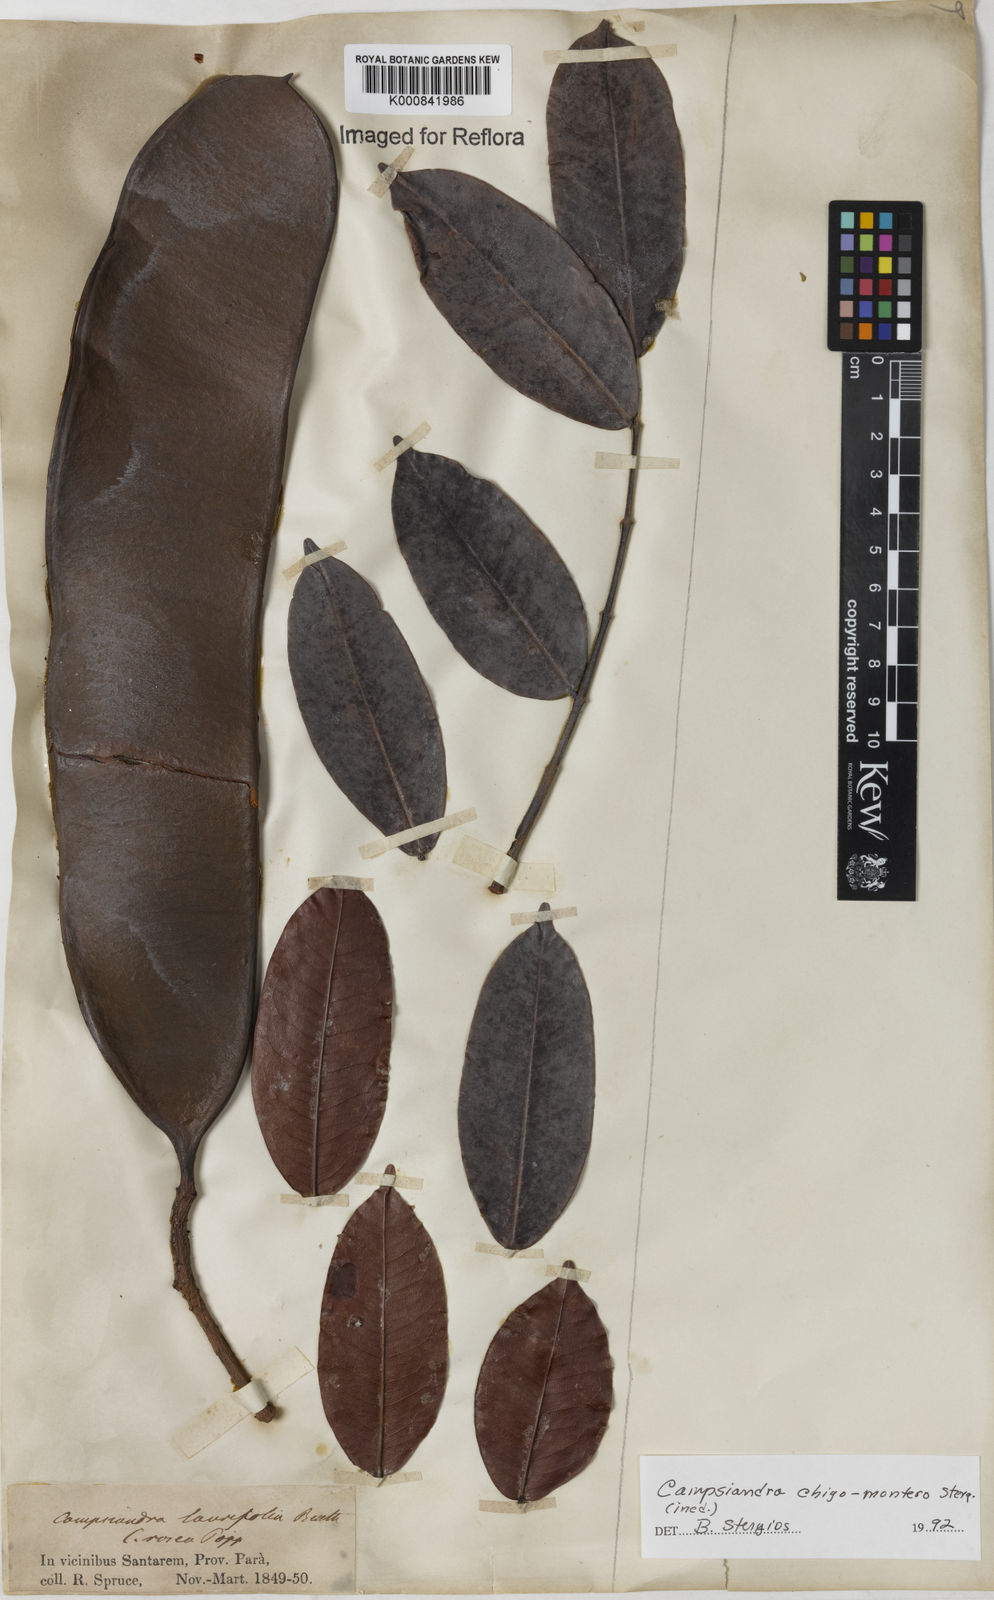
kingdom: Plantae
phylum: Tracheophyta
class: Magnoliopsida
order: Fabales
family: Fabaceae
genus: Campsiandra
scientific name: Campsiandra chigo-montero
